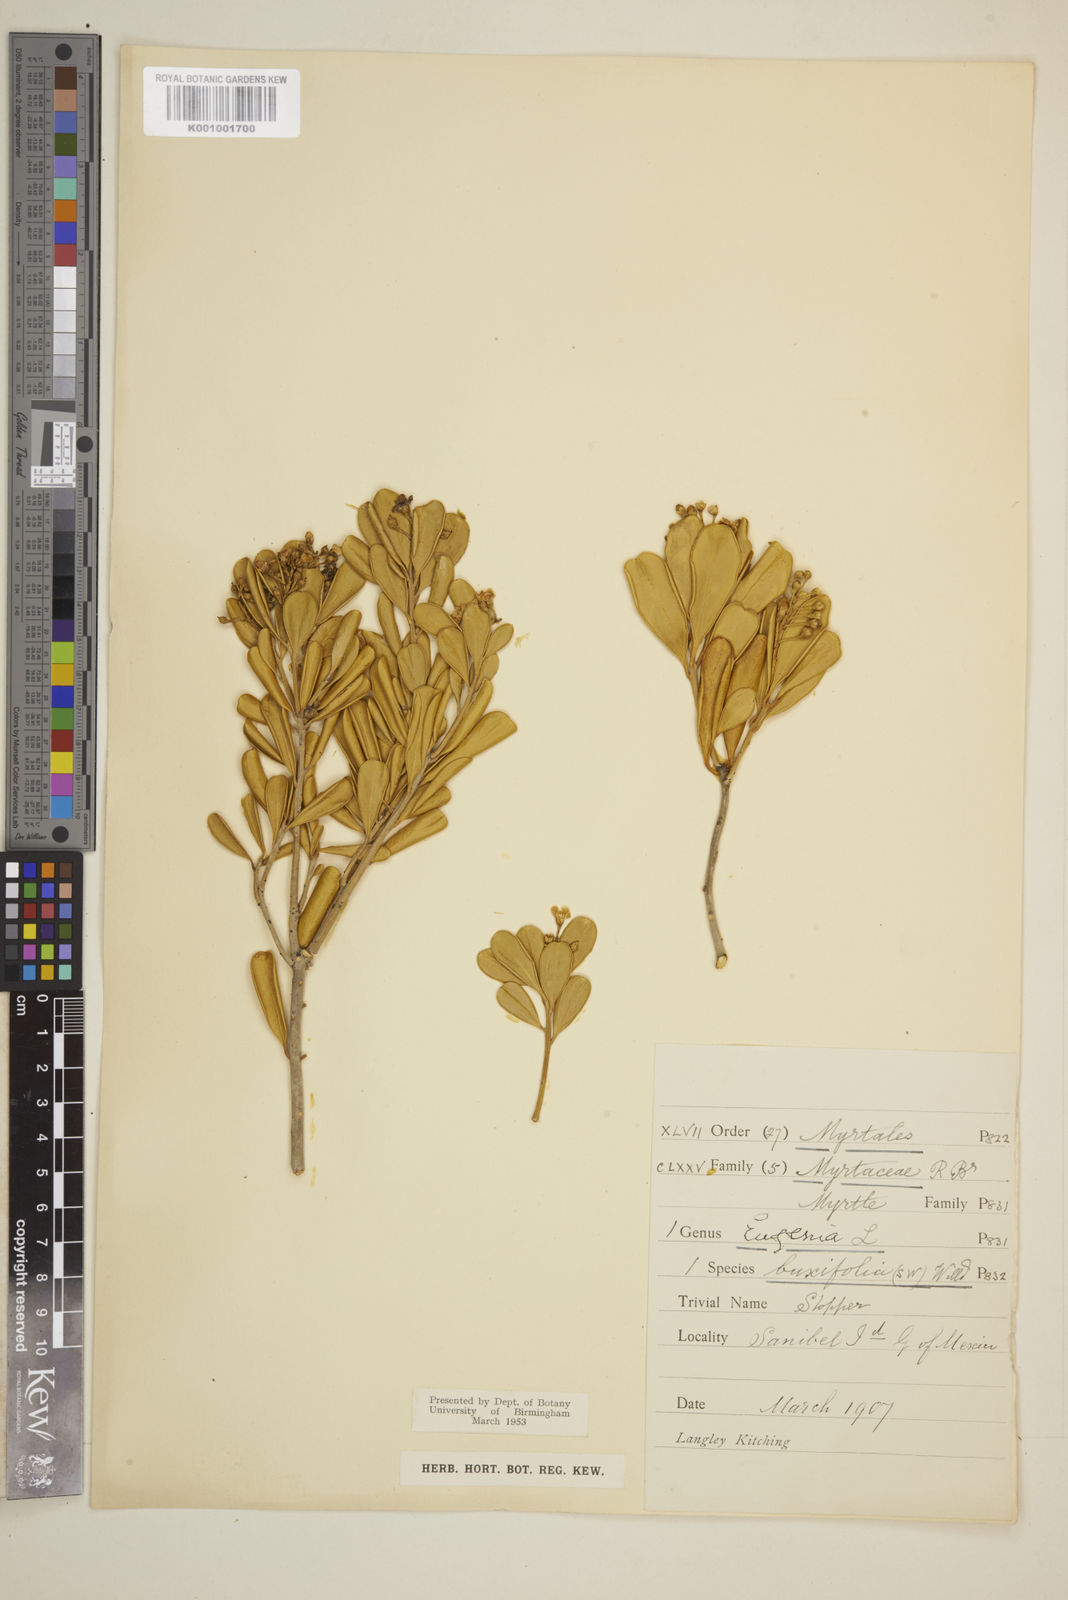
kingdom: Plantae
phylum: Tracheophyta
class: Magnoliopsida
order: Myrtales
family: Myrtaceae
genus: Eugenia
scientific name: Eugenia buxifolia
